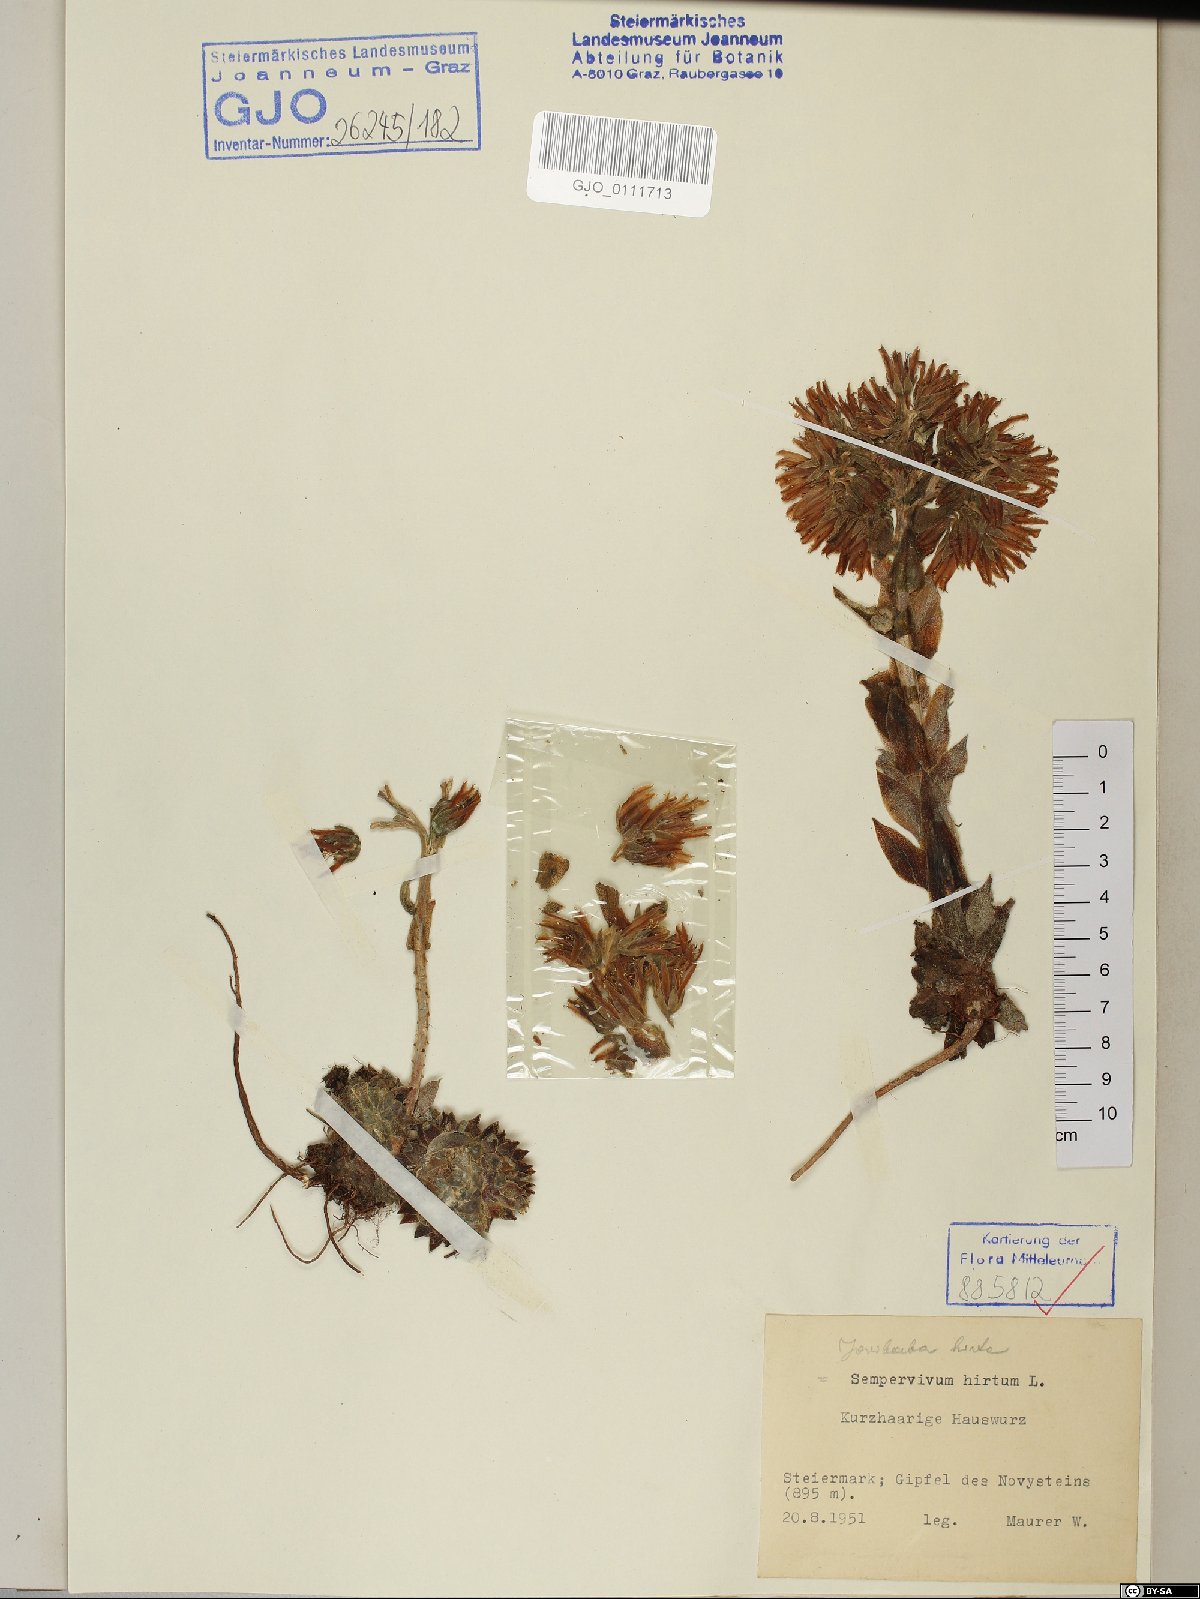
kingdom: Plantae
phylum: Tracheophyta
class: Magnoliopsida
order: Saxifragales
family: Crassulaceae
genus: Sempervivum
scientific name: Sempervivum globiferum
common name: Rolling hen-and-chicks
